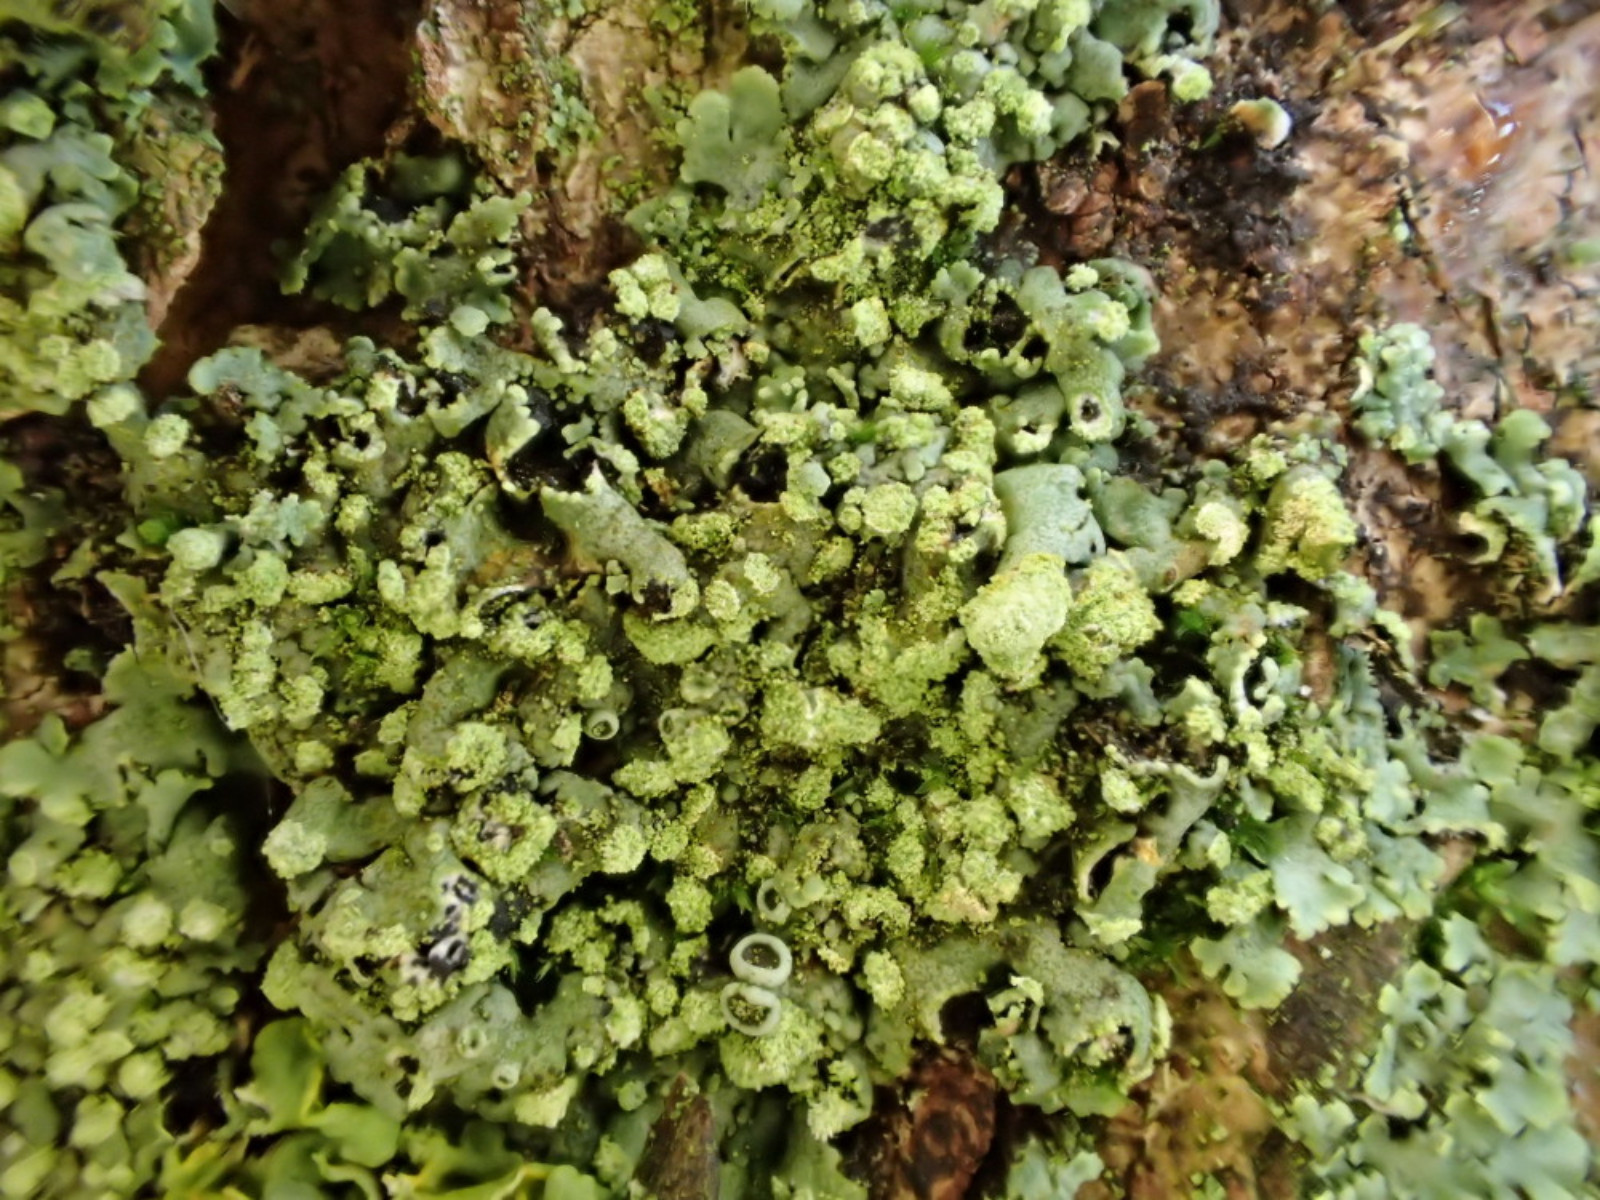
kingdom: Fungi
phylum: Ascomycota
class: Lecanoromycetes
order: Caliciales
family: Physciaceae
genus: Phaeophyscia
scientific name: Phaeophyscia orbicularis
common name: grågrøn rosetlav
